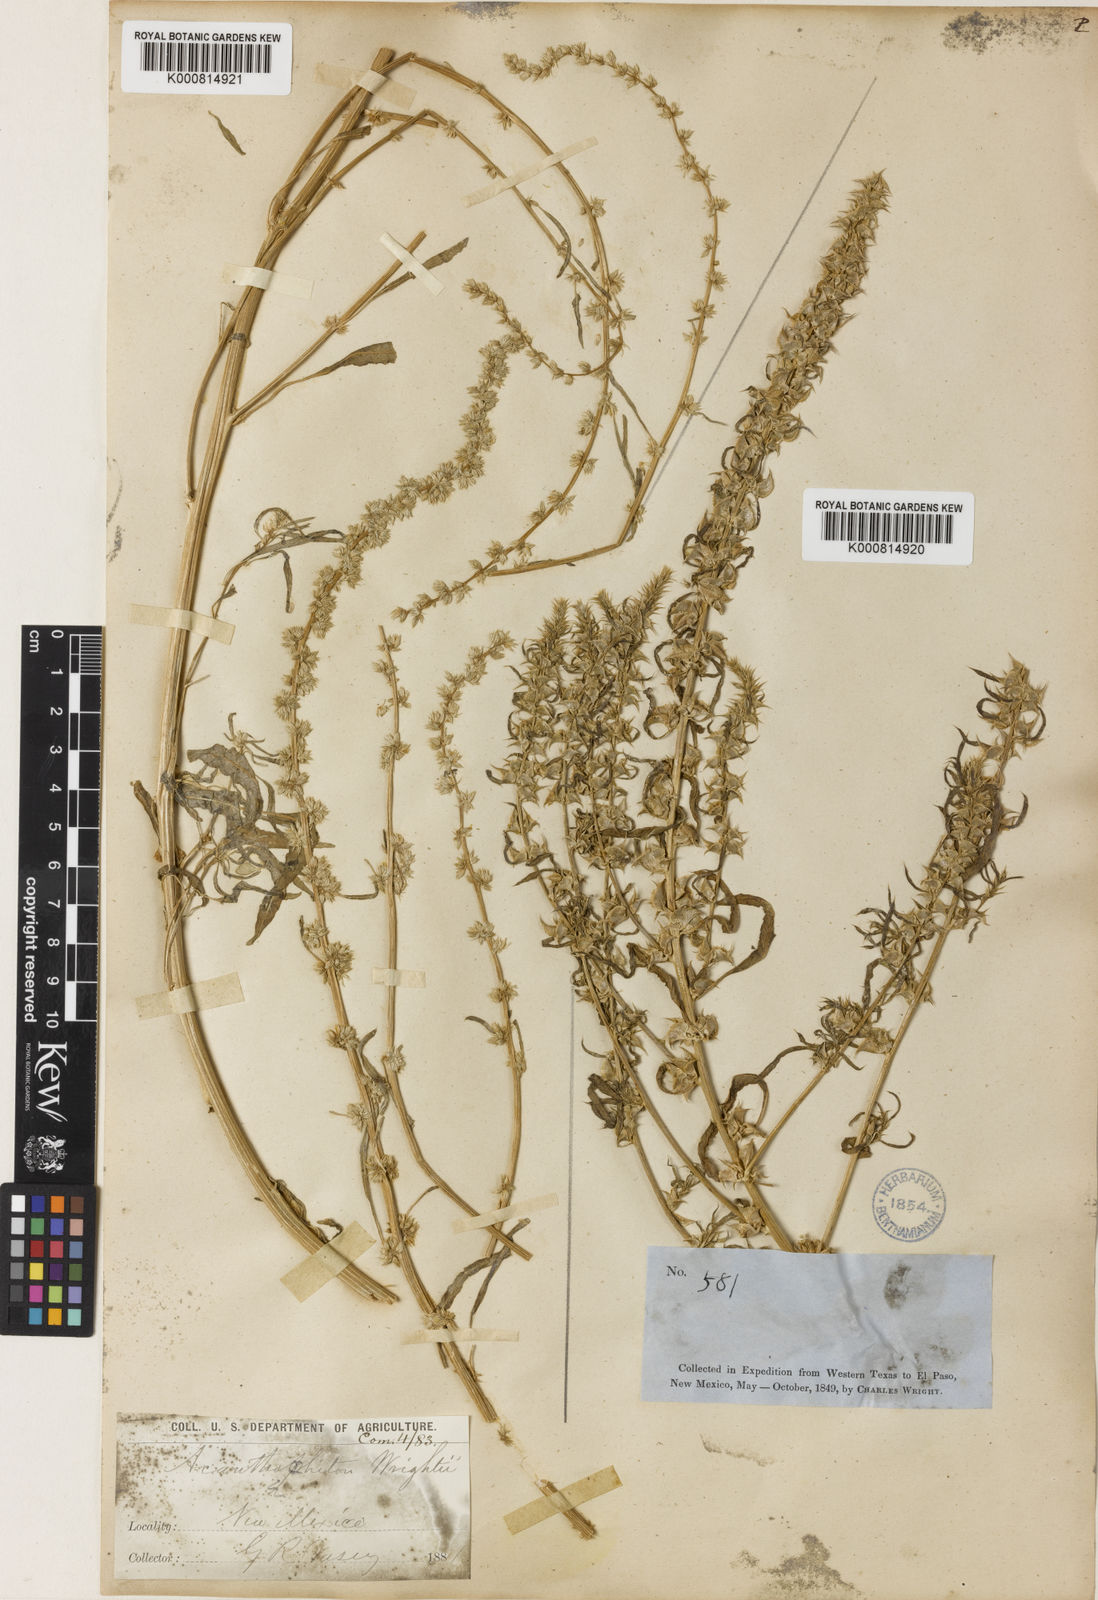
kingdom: Plantae
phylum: Tracheophyta
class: Magnoliopsida
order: Caryophyllales
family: Amaranthaceae
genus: Amaranthus
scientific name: Amaranthus acanthochiton
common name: Greenstripe
